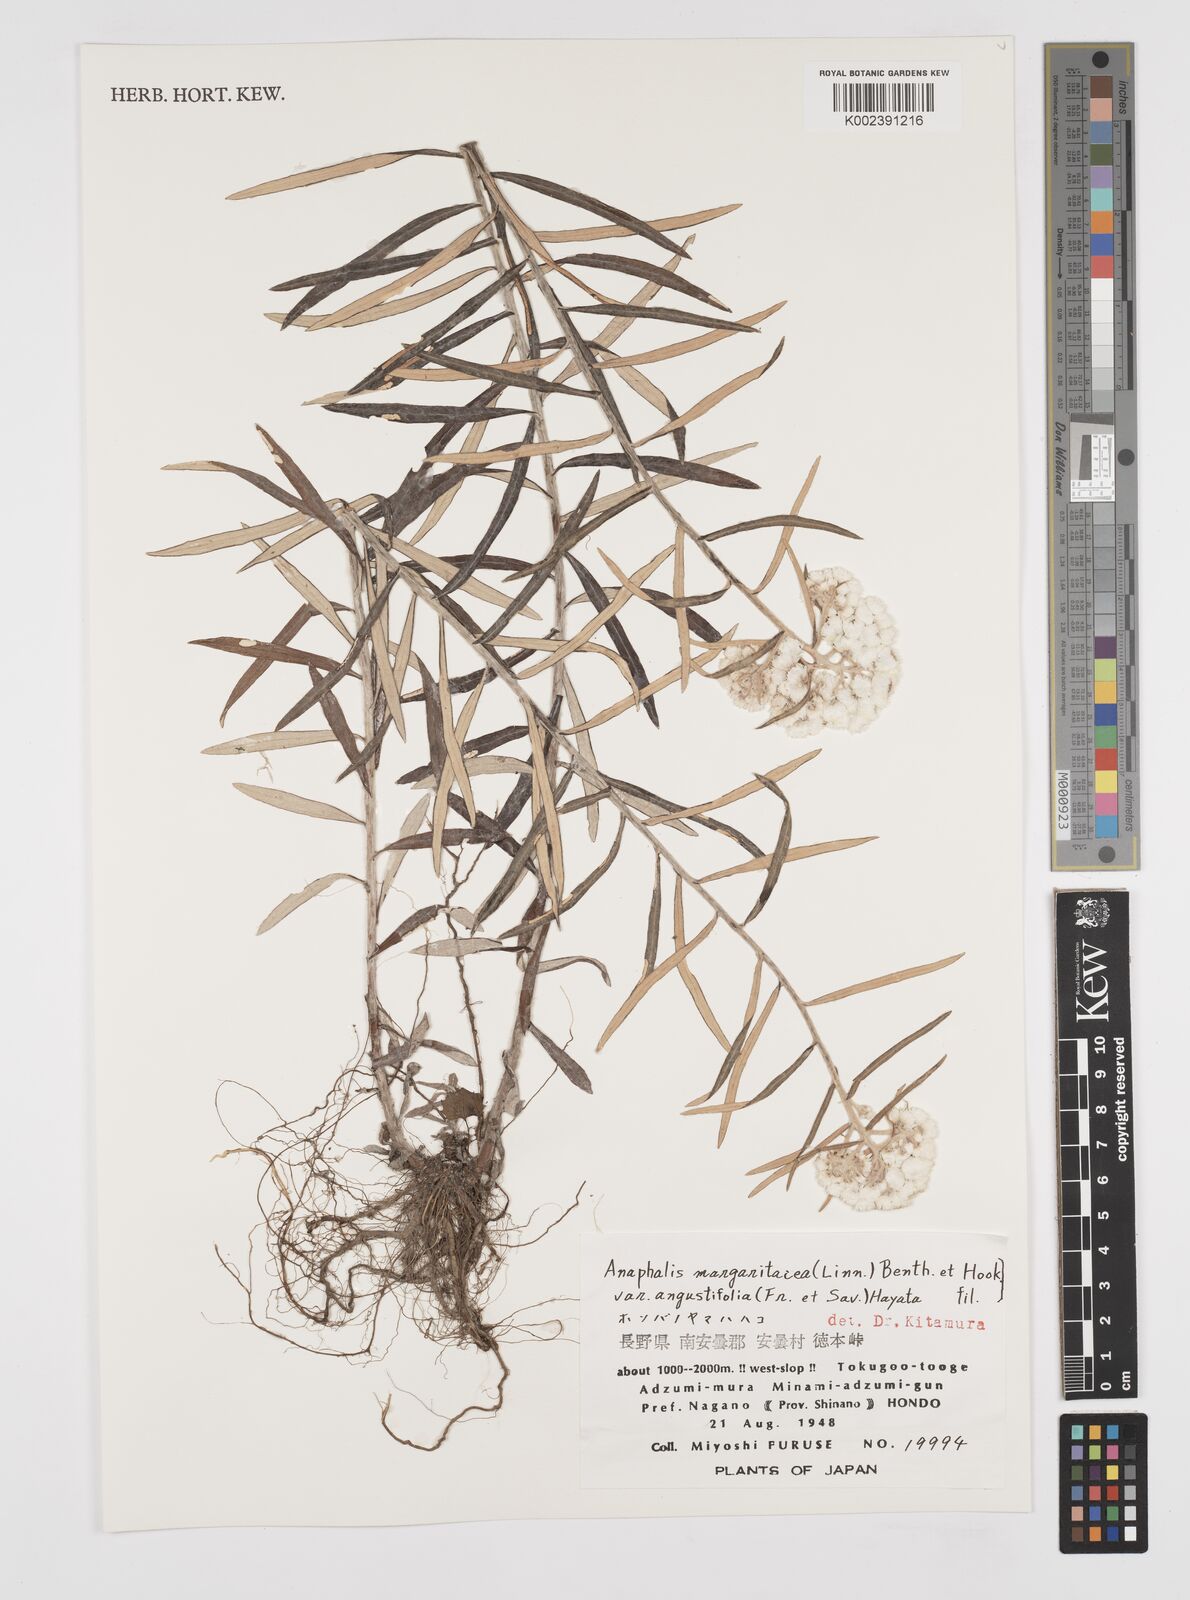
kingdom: Plantae
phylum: Tracheophyta
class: Magnoliopsida
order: Asterales
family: Asteraceae
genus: Anaphalis
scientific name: Anaphalis margaritacea
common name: Pearly everlasting
